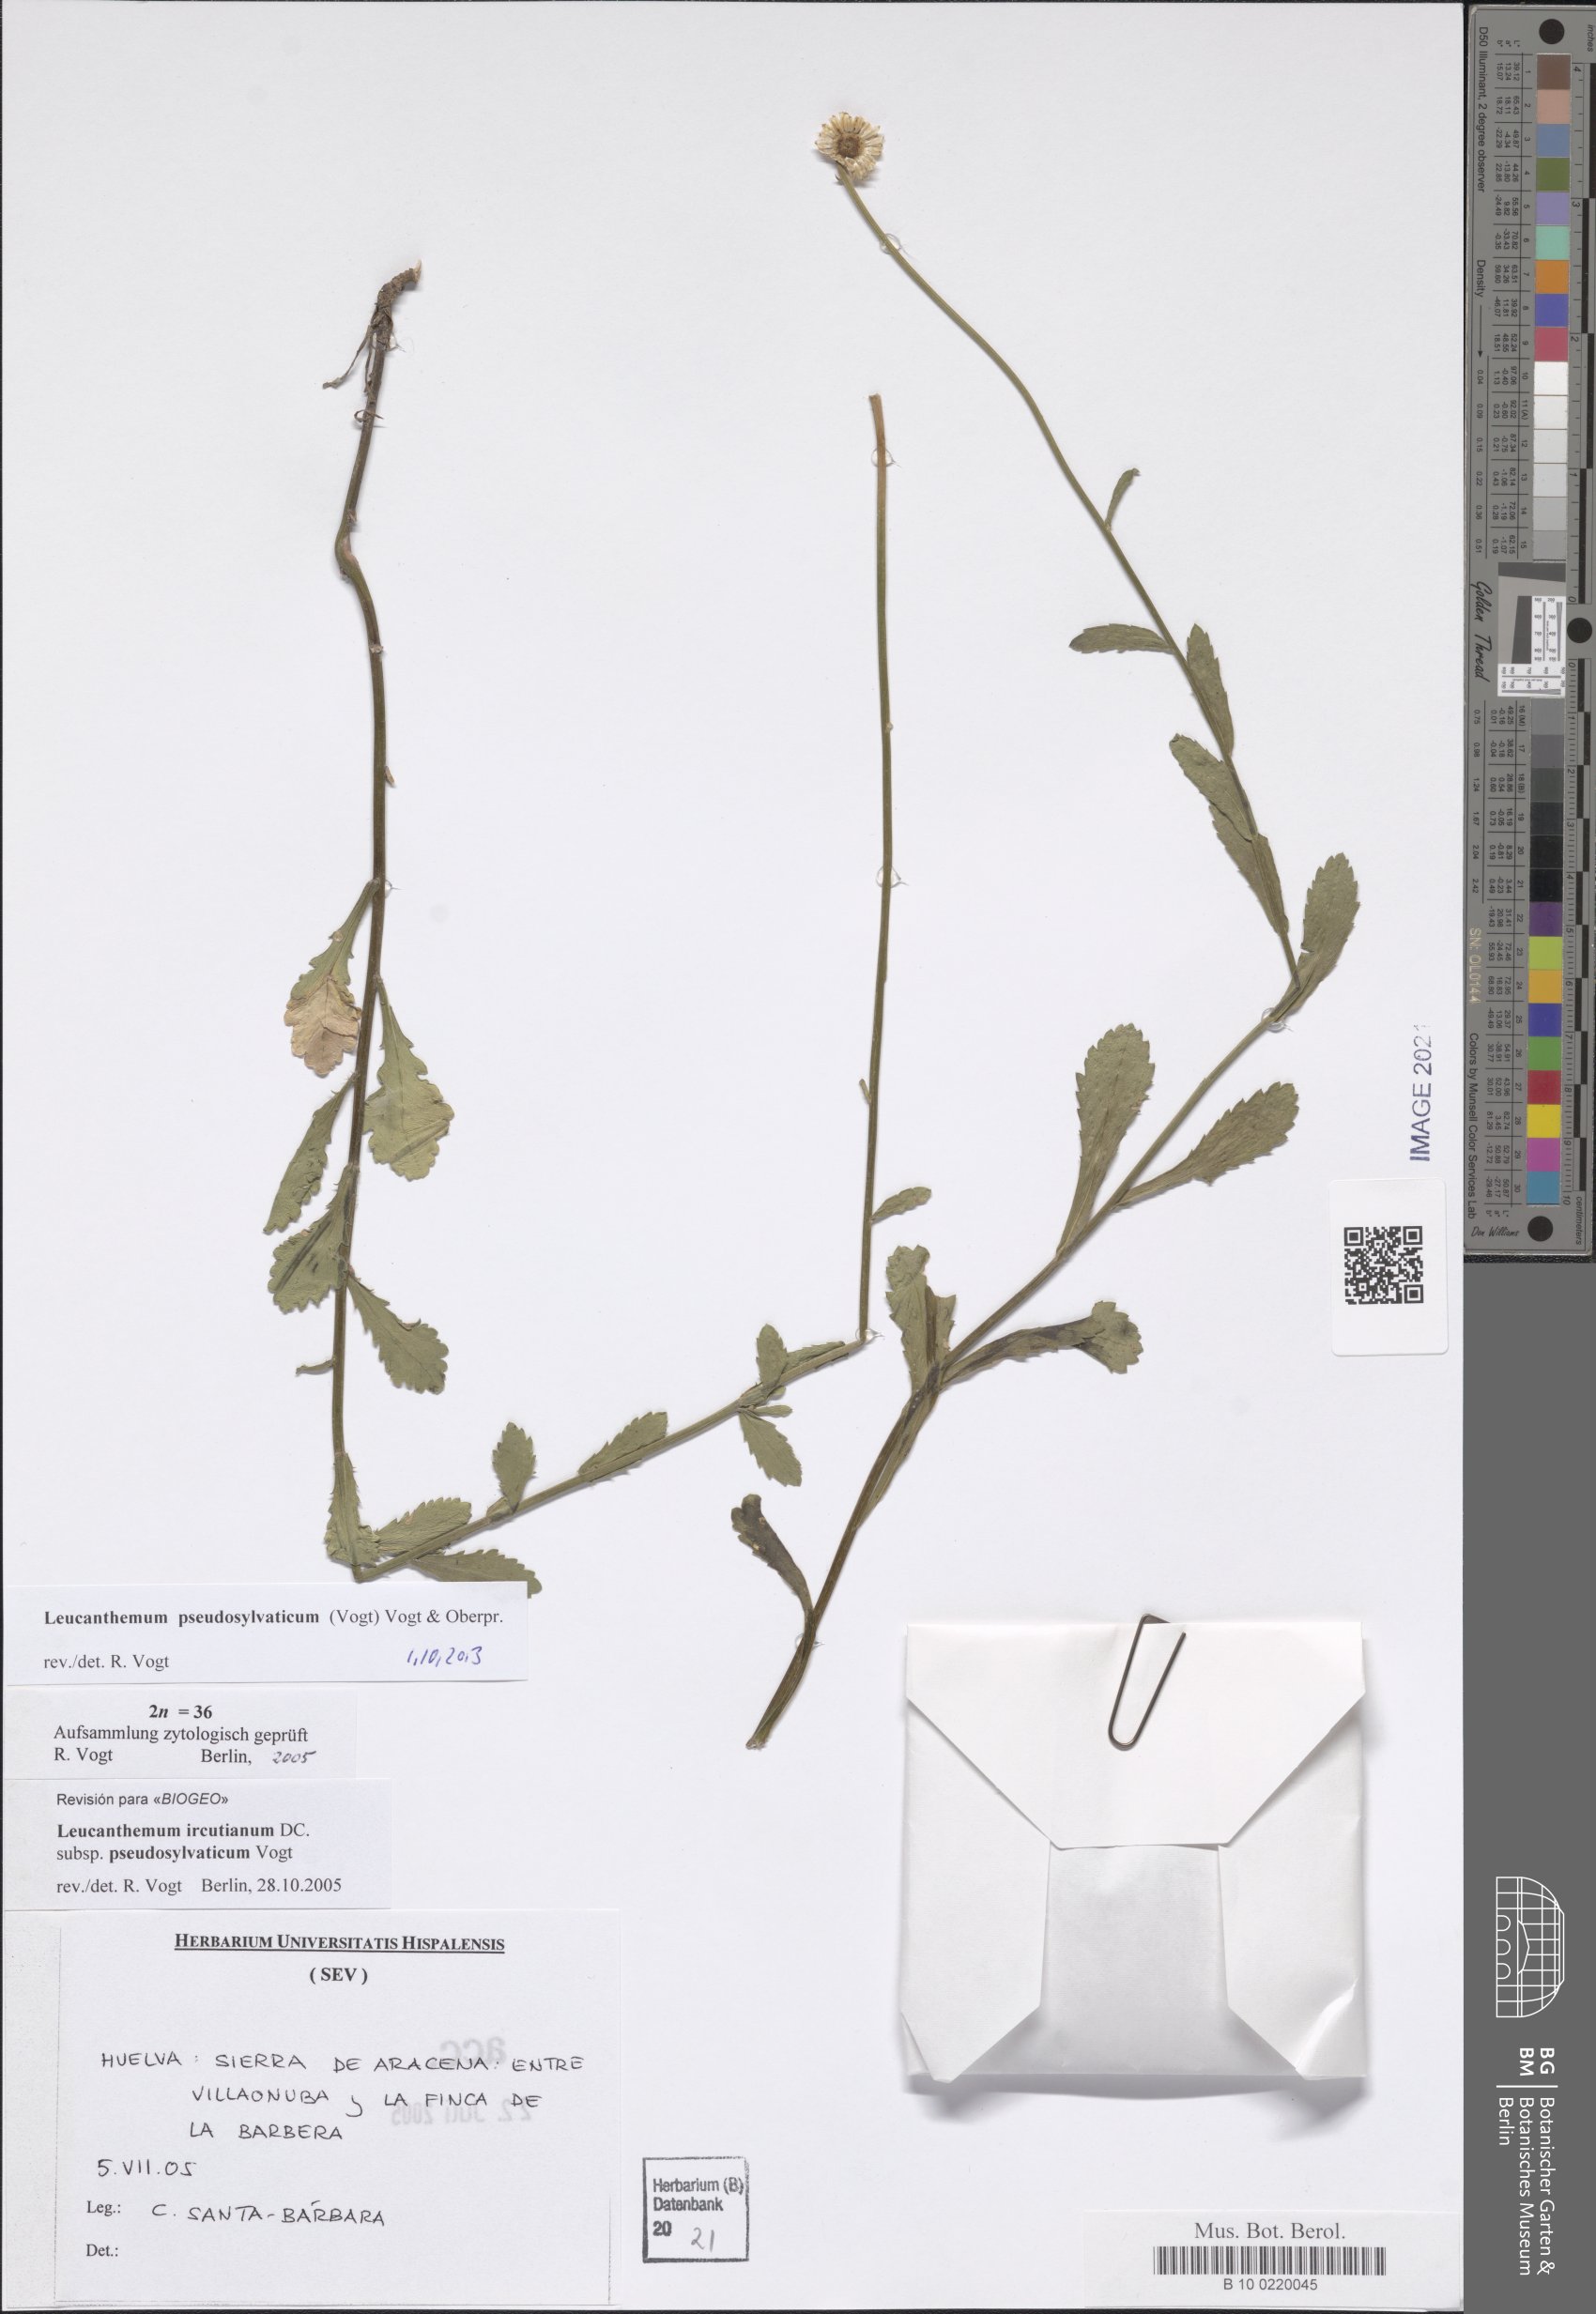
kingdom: Plantae
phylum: Tracheophyta
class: Magnoliopsida
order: Asterales
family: Asteraceae
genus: Leucanthemum
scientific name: Leucanthemum pseudosylvaticum
